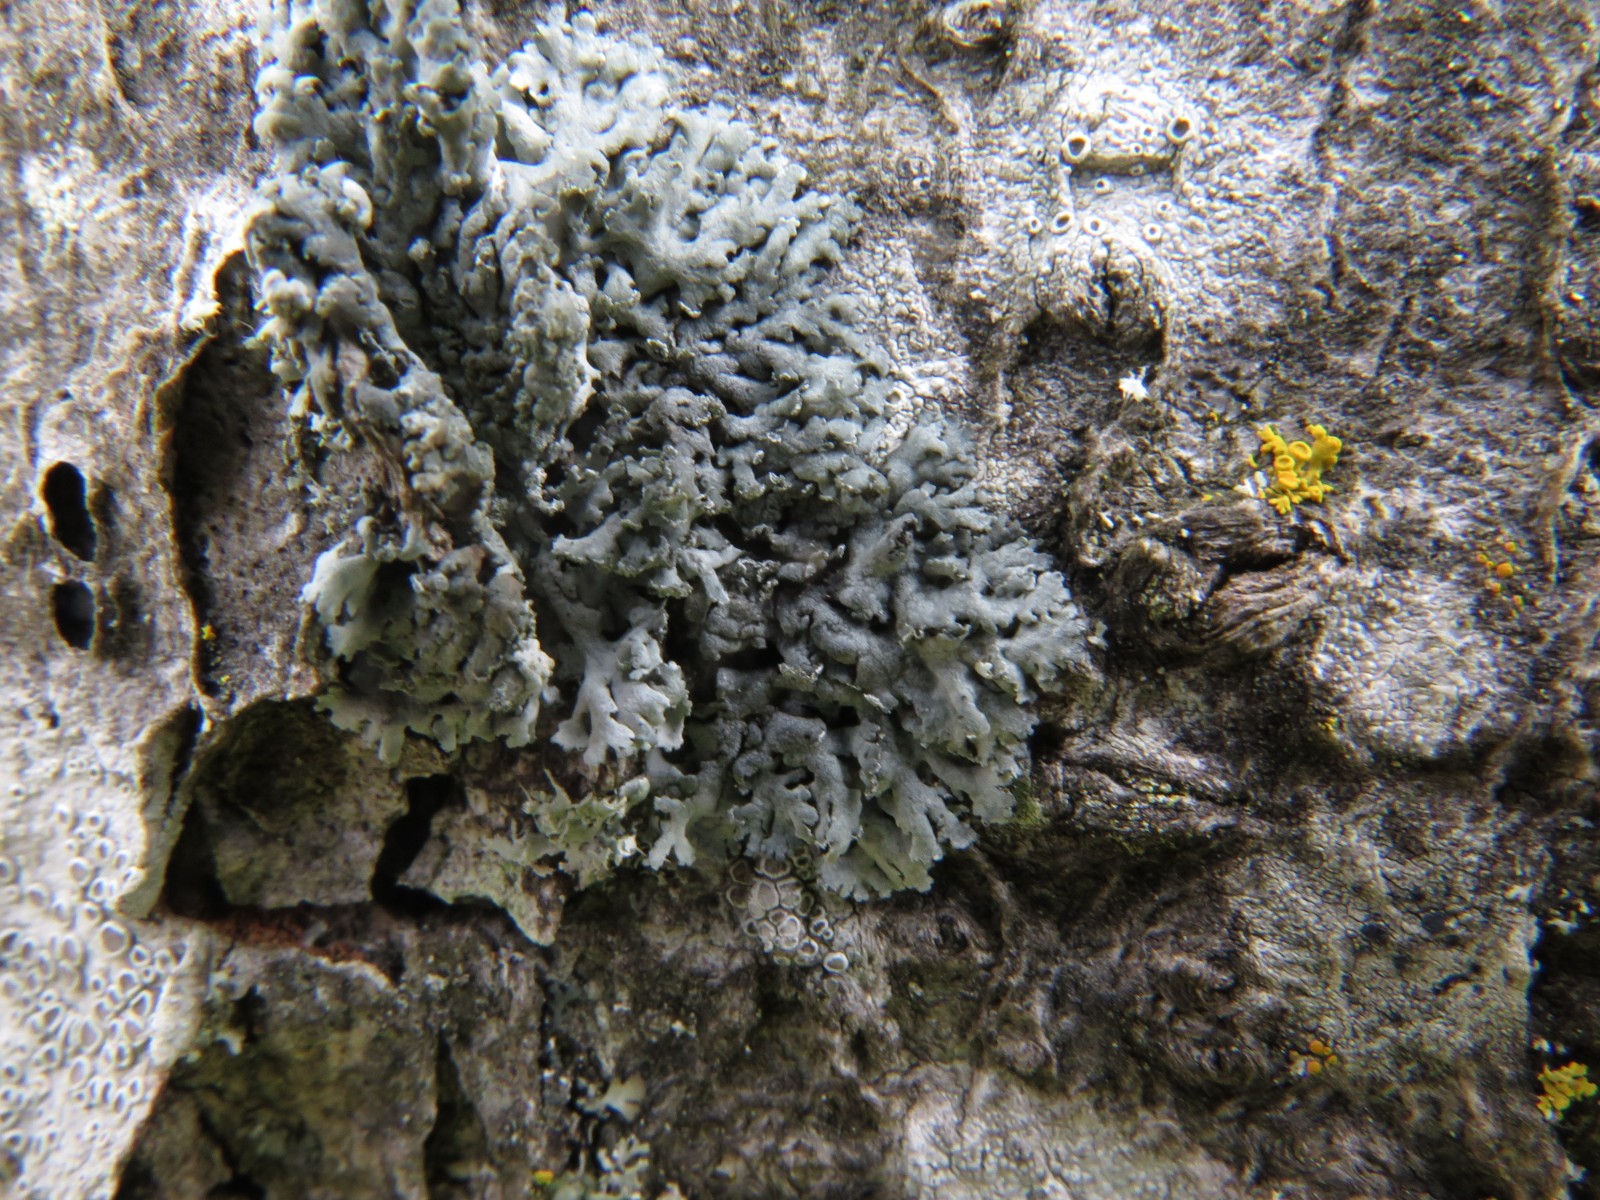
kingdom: Fungi
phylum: Ascomycota
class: Lecanoromycetes
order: Lecanorales
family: Parmeliaceae
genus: Hypogymnia
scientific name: Hypogymnia physodes
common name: almindelig kvistlav
